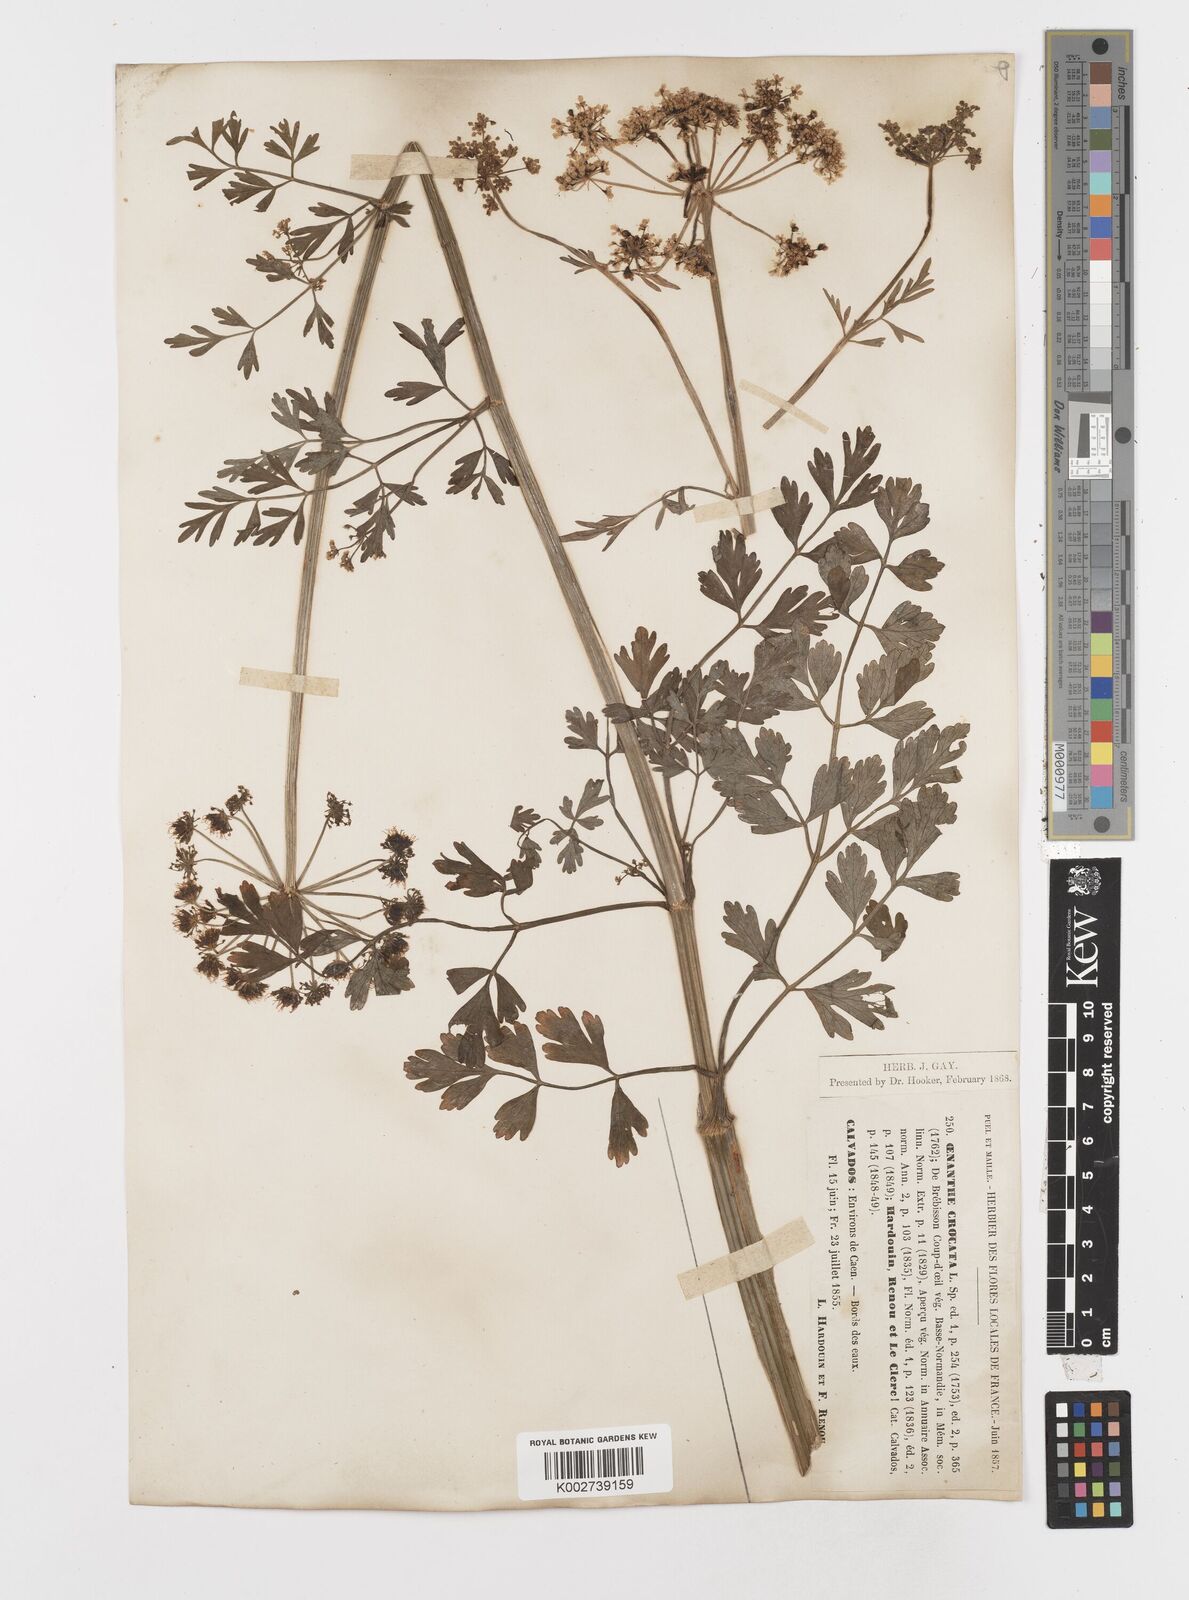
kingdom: Plantae
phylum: Tracheophyta
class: Magnoliopsida
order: Apiales
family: Apiaceae
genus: Oenanthe
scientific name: Oenanthe crocata
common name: Hemlock water-dropwort
